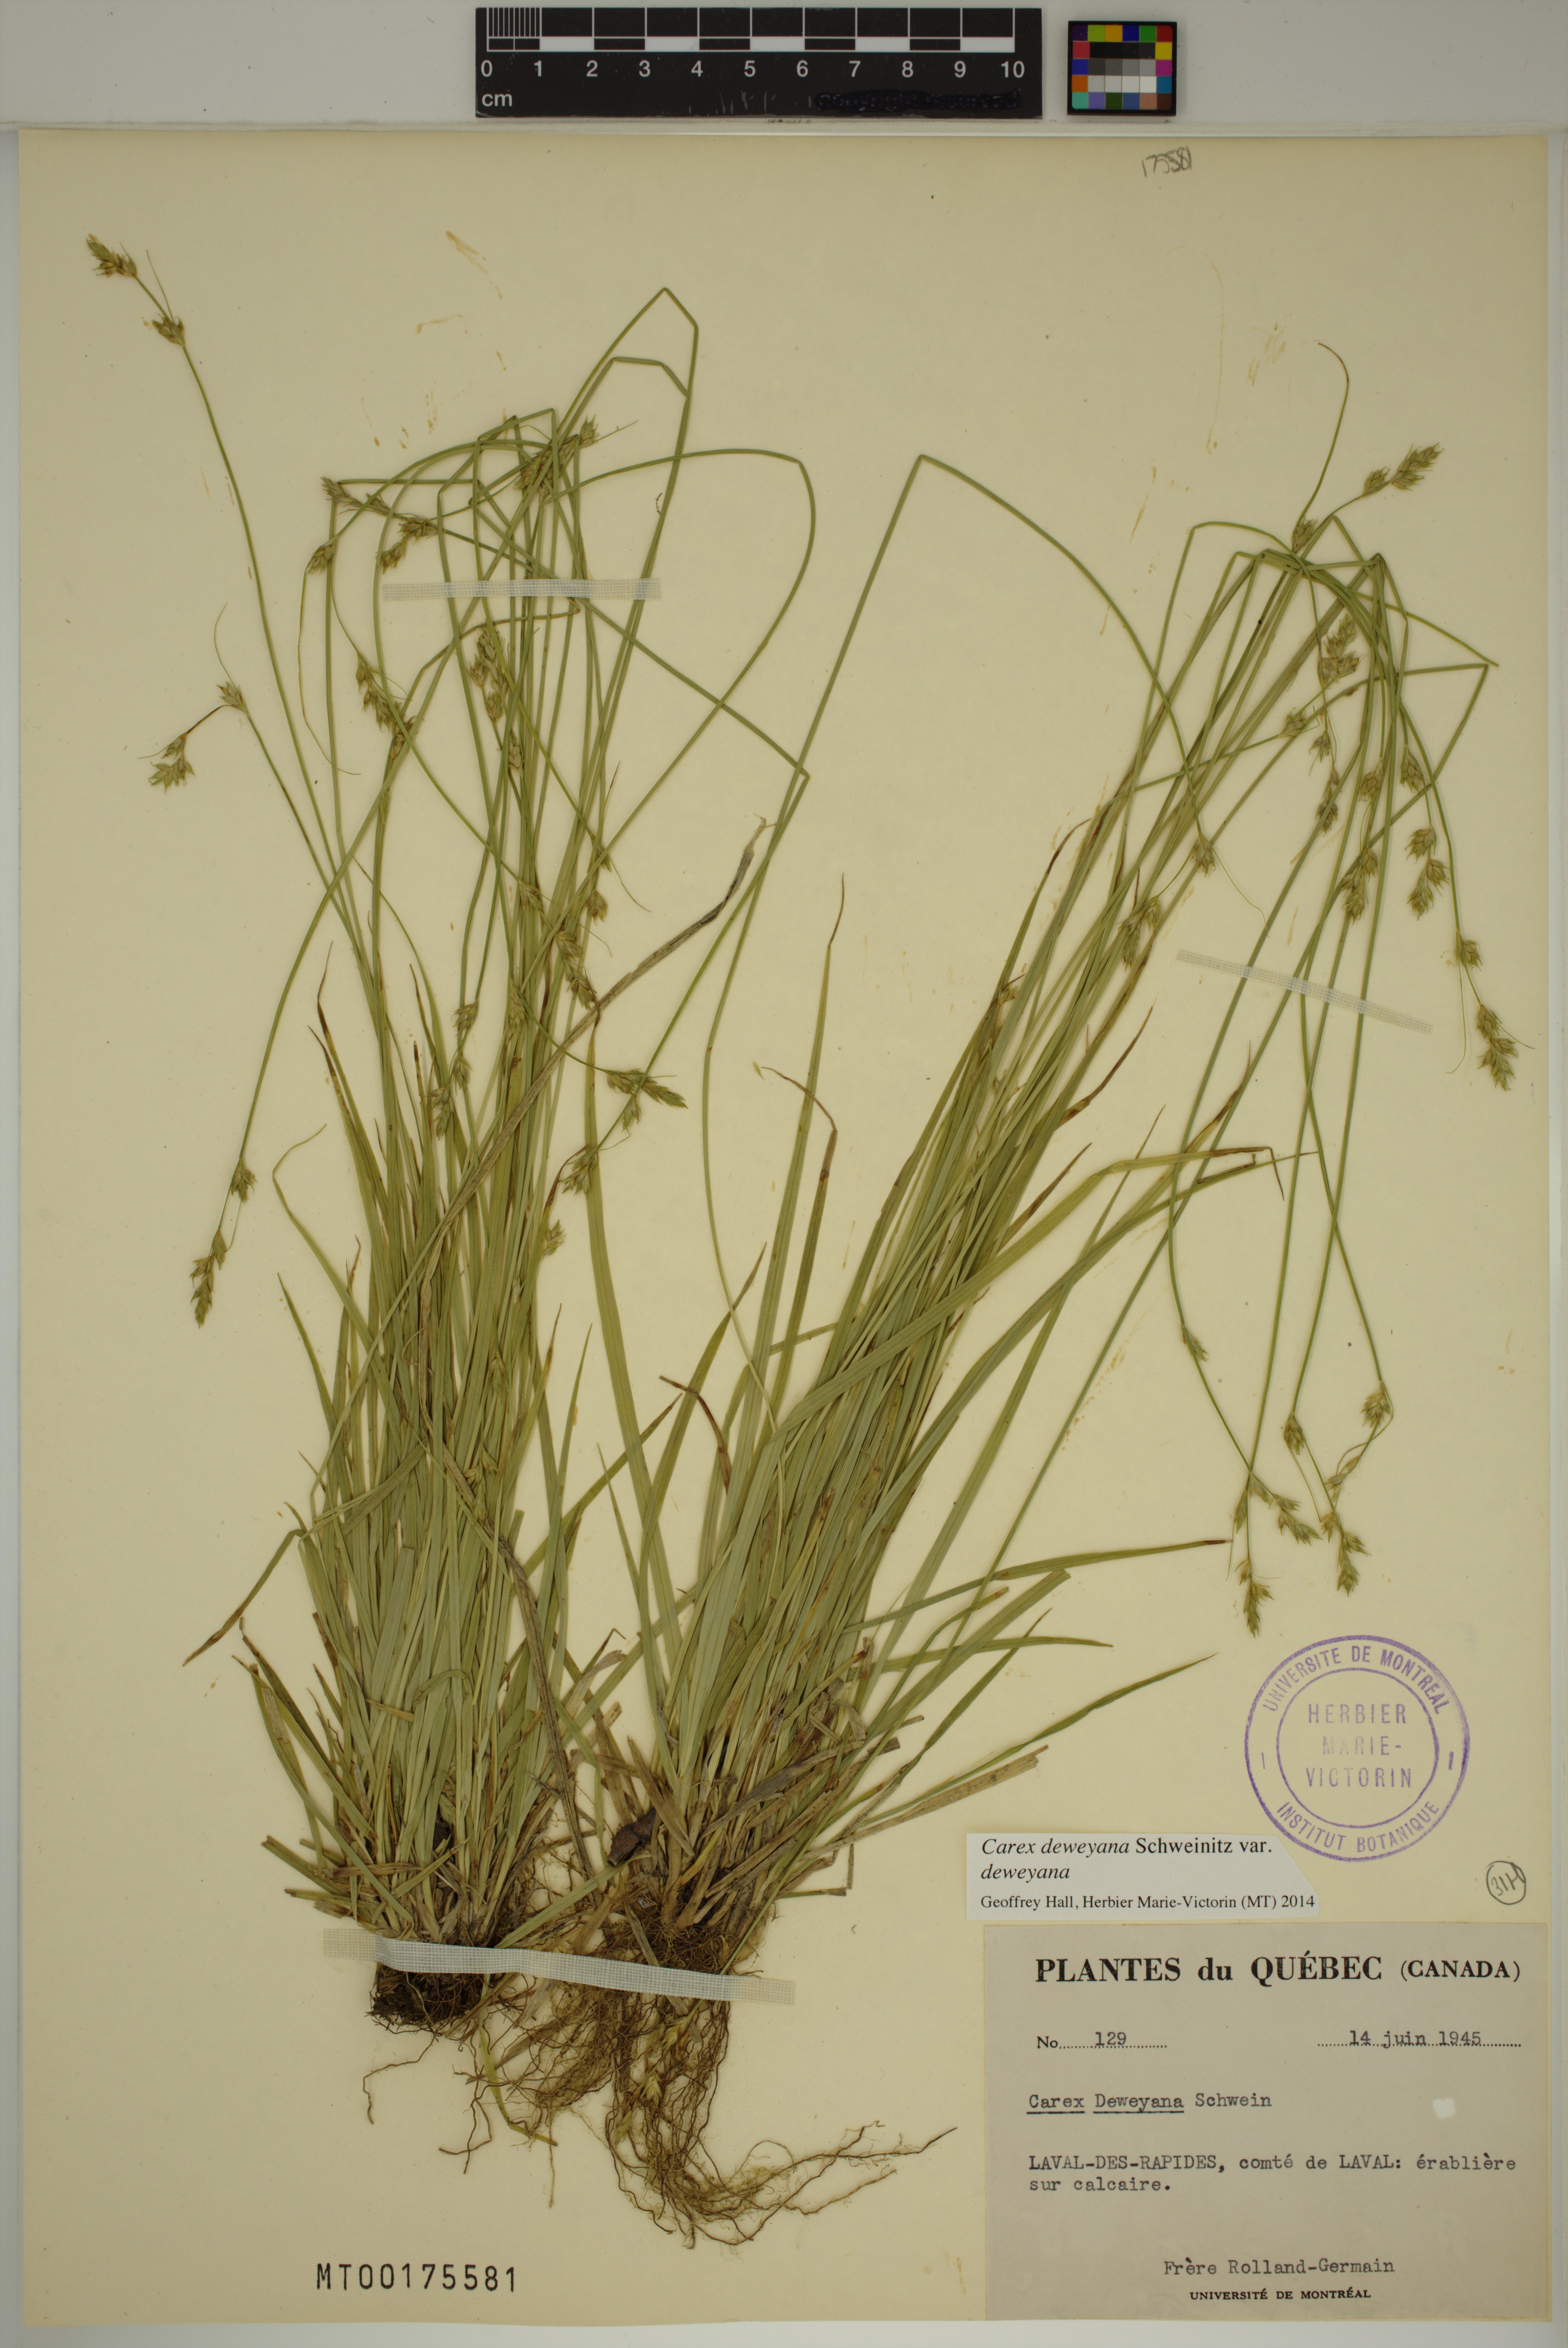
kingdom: Plantae
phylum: Tracheophyta
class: Liliopsida
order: Poales
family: Cyperaceae
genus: Carex
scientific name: Carex deweyana
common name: Dewey's sedge
